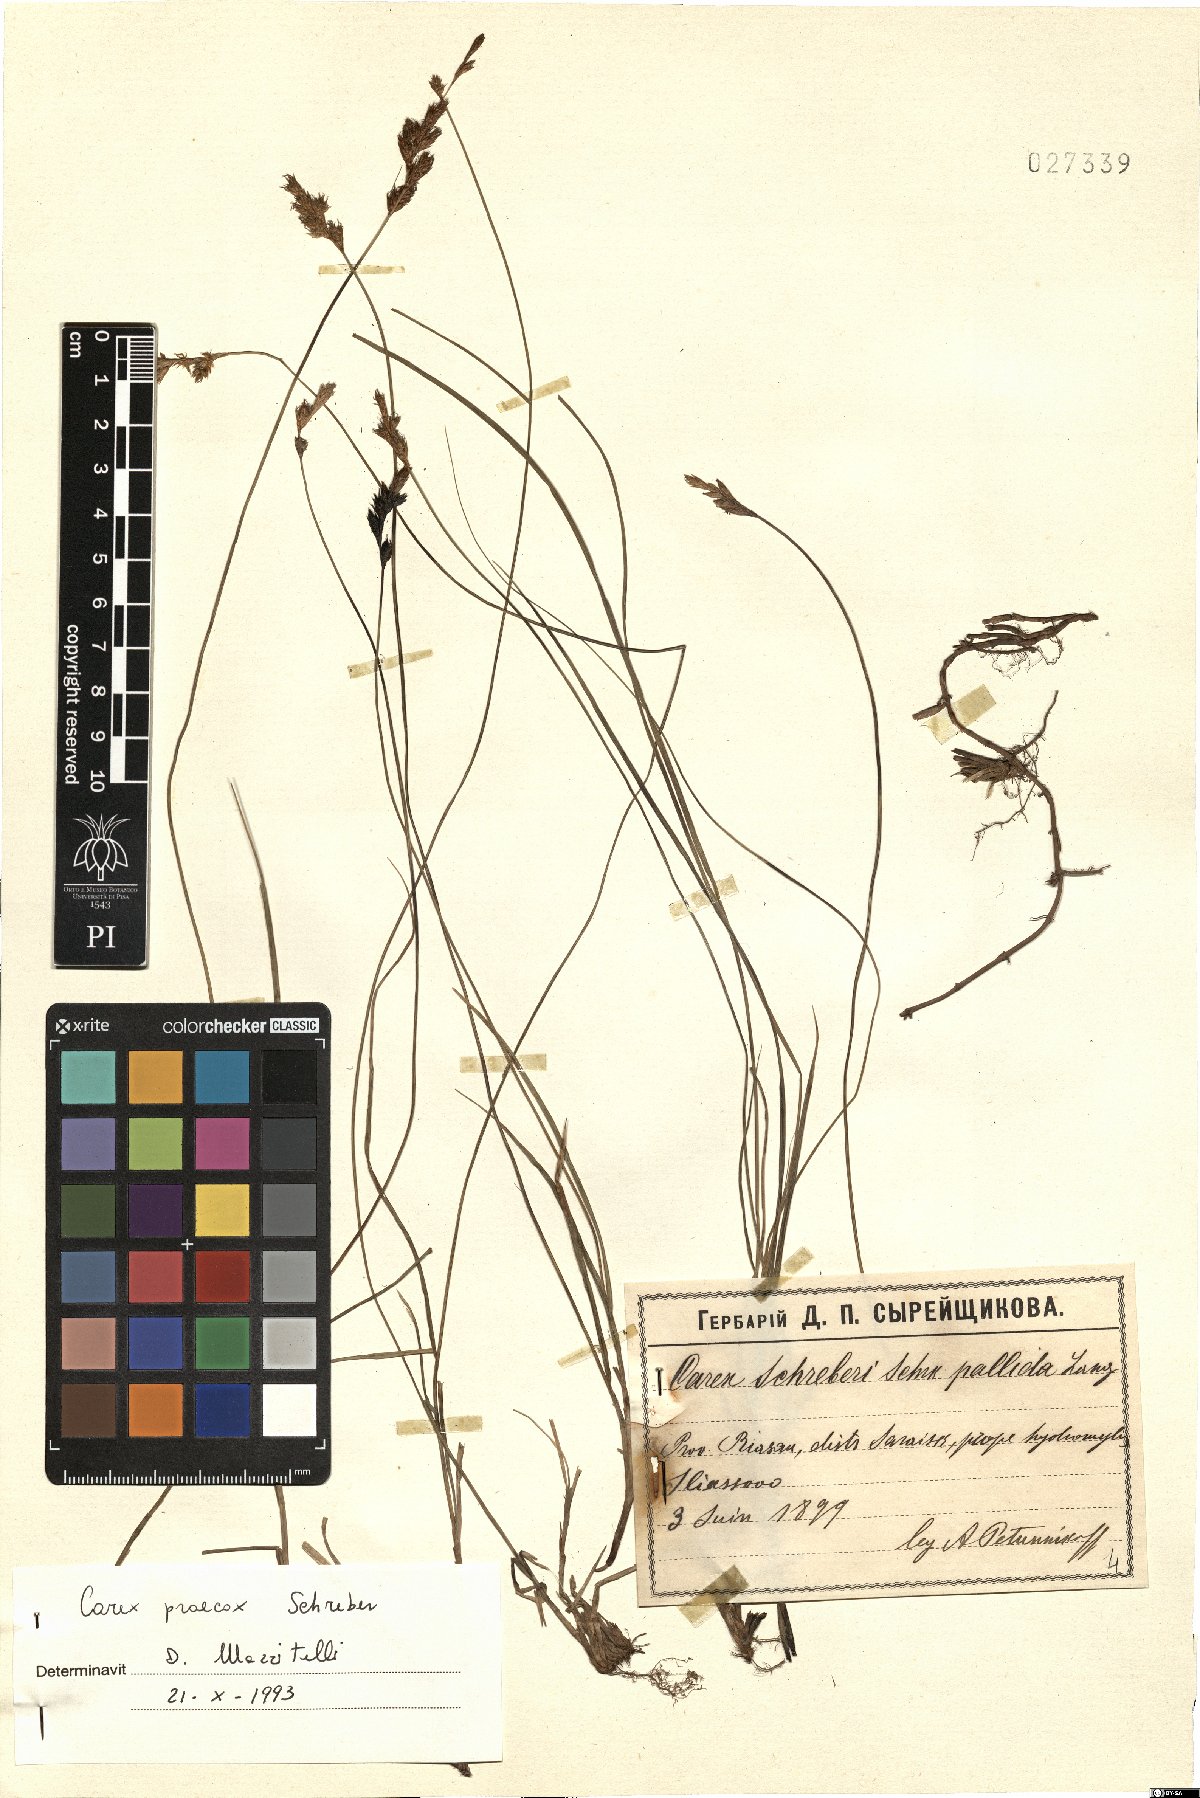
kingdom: Plantae
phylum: Tracheophyta
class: Liliopsida
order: Poales
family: Cyperaceae
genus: Carex
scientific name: Carex praecox
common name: Early sedge
